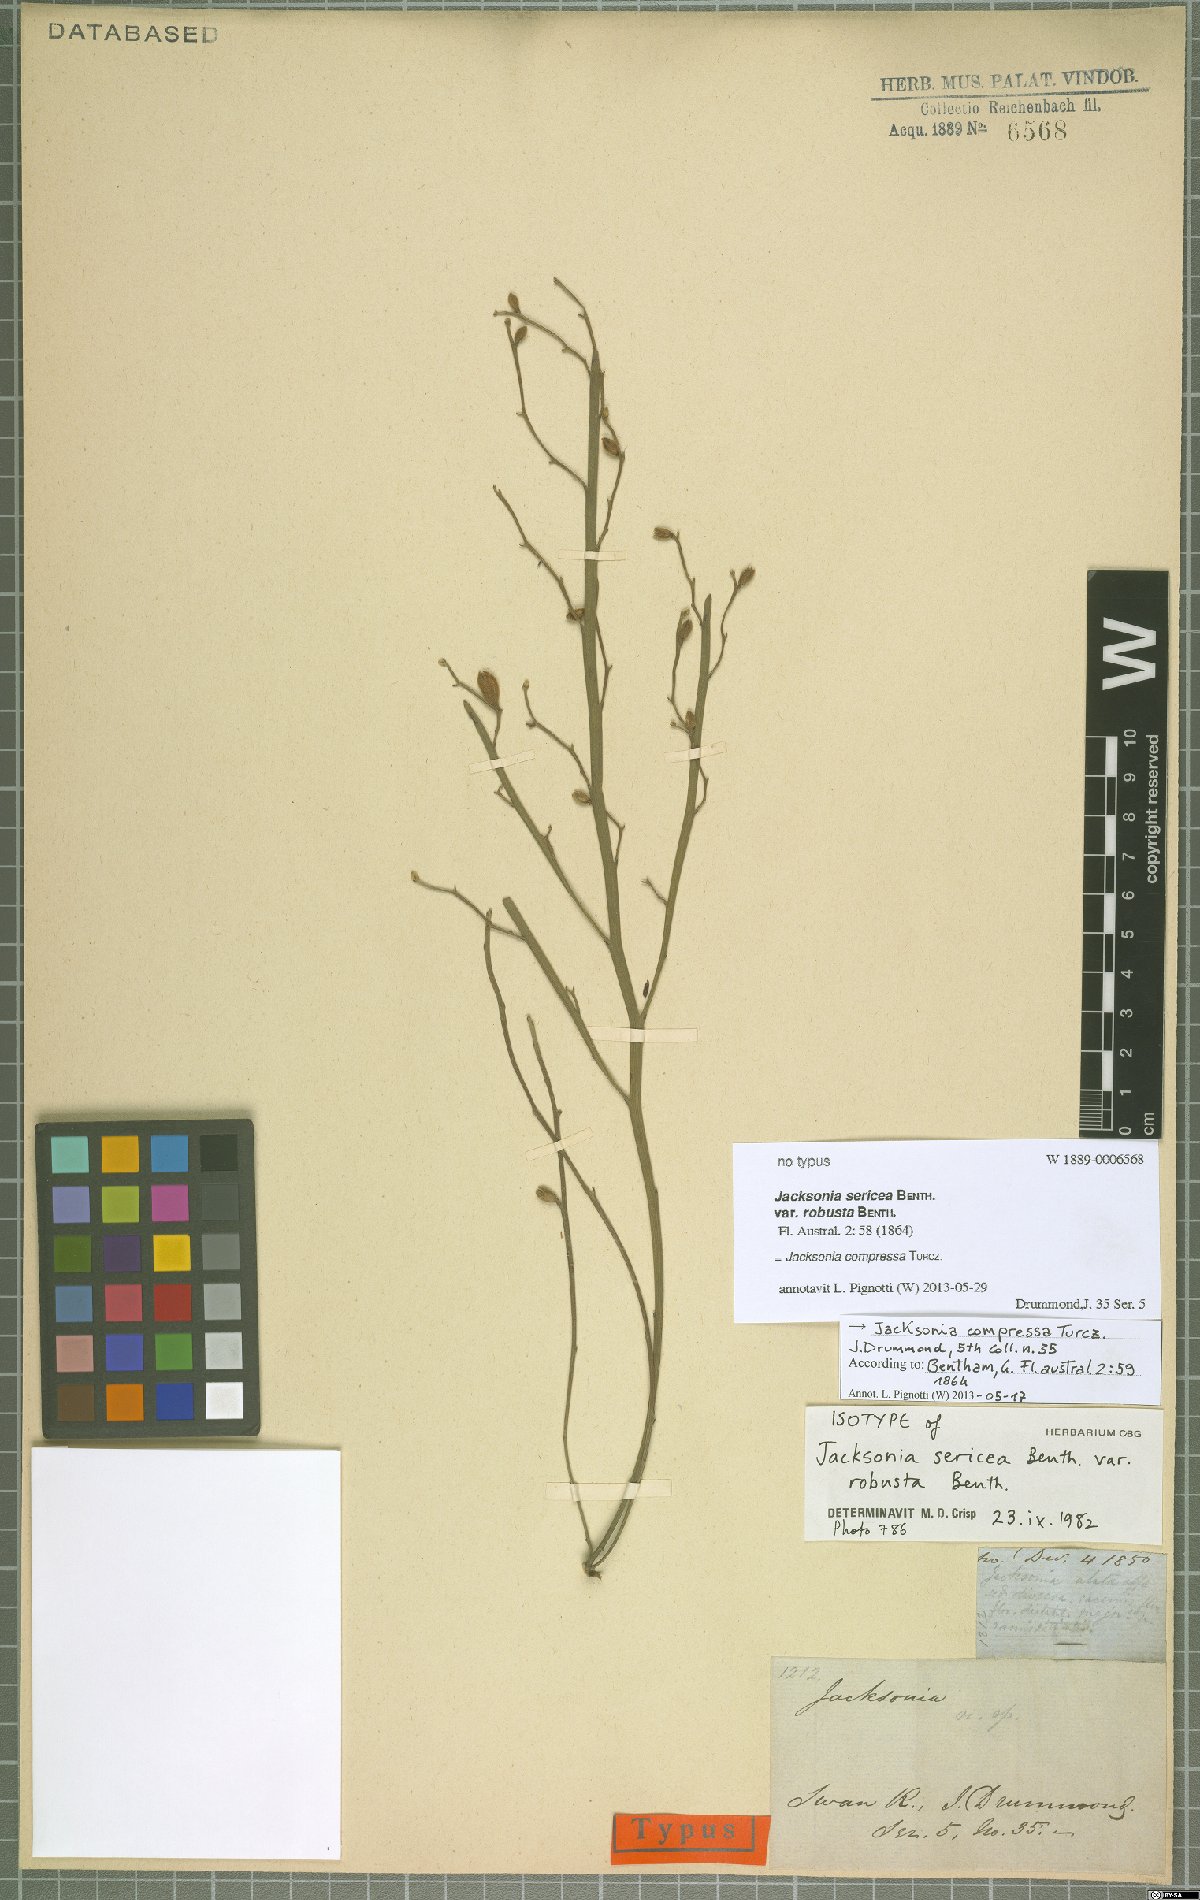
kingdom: Plantae
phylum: Tracheophyta
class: Magnoliopsida
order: Fabales
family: Fabaceae
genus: Jacksonia
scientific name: Jacksonia compressa
